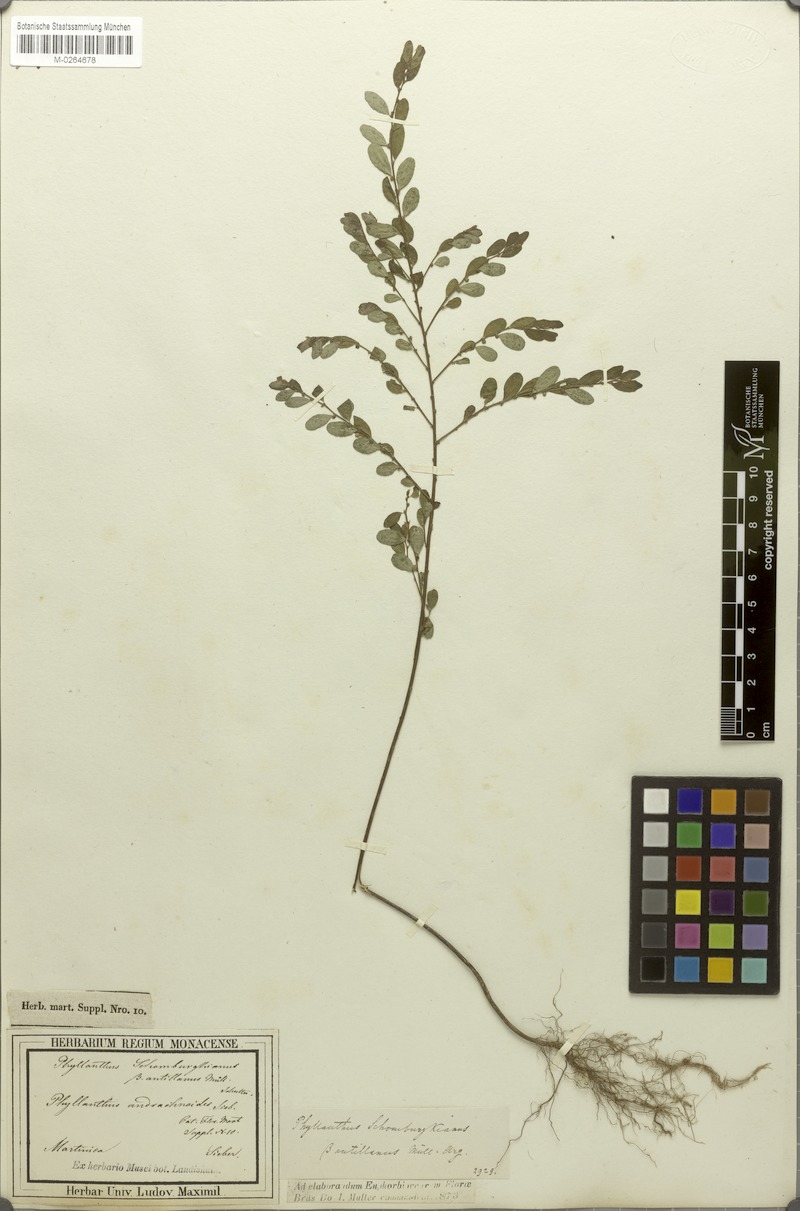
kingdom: Plantae
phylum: Tracheophyta
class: Magnoliopsida
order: Malpighiales
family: Phyllanthaceae
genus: Phyllanthus
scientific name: Phyllanthus caroliniensis
